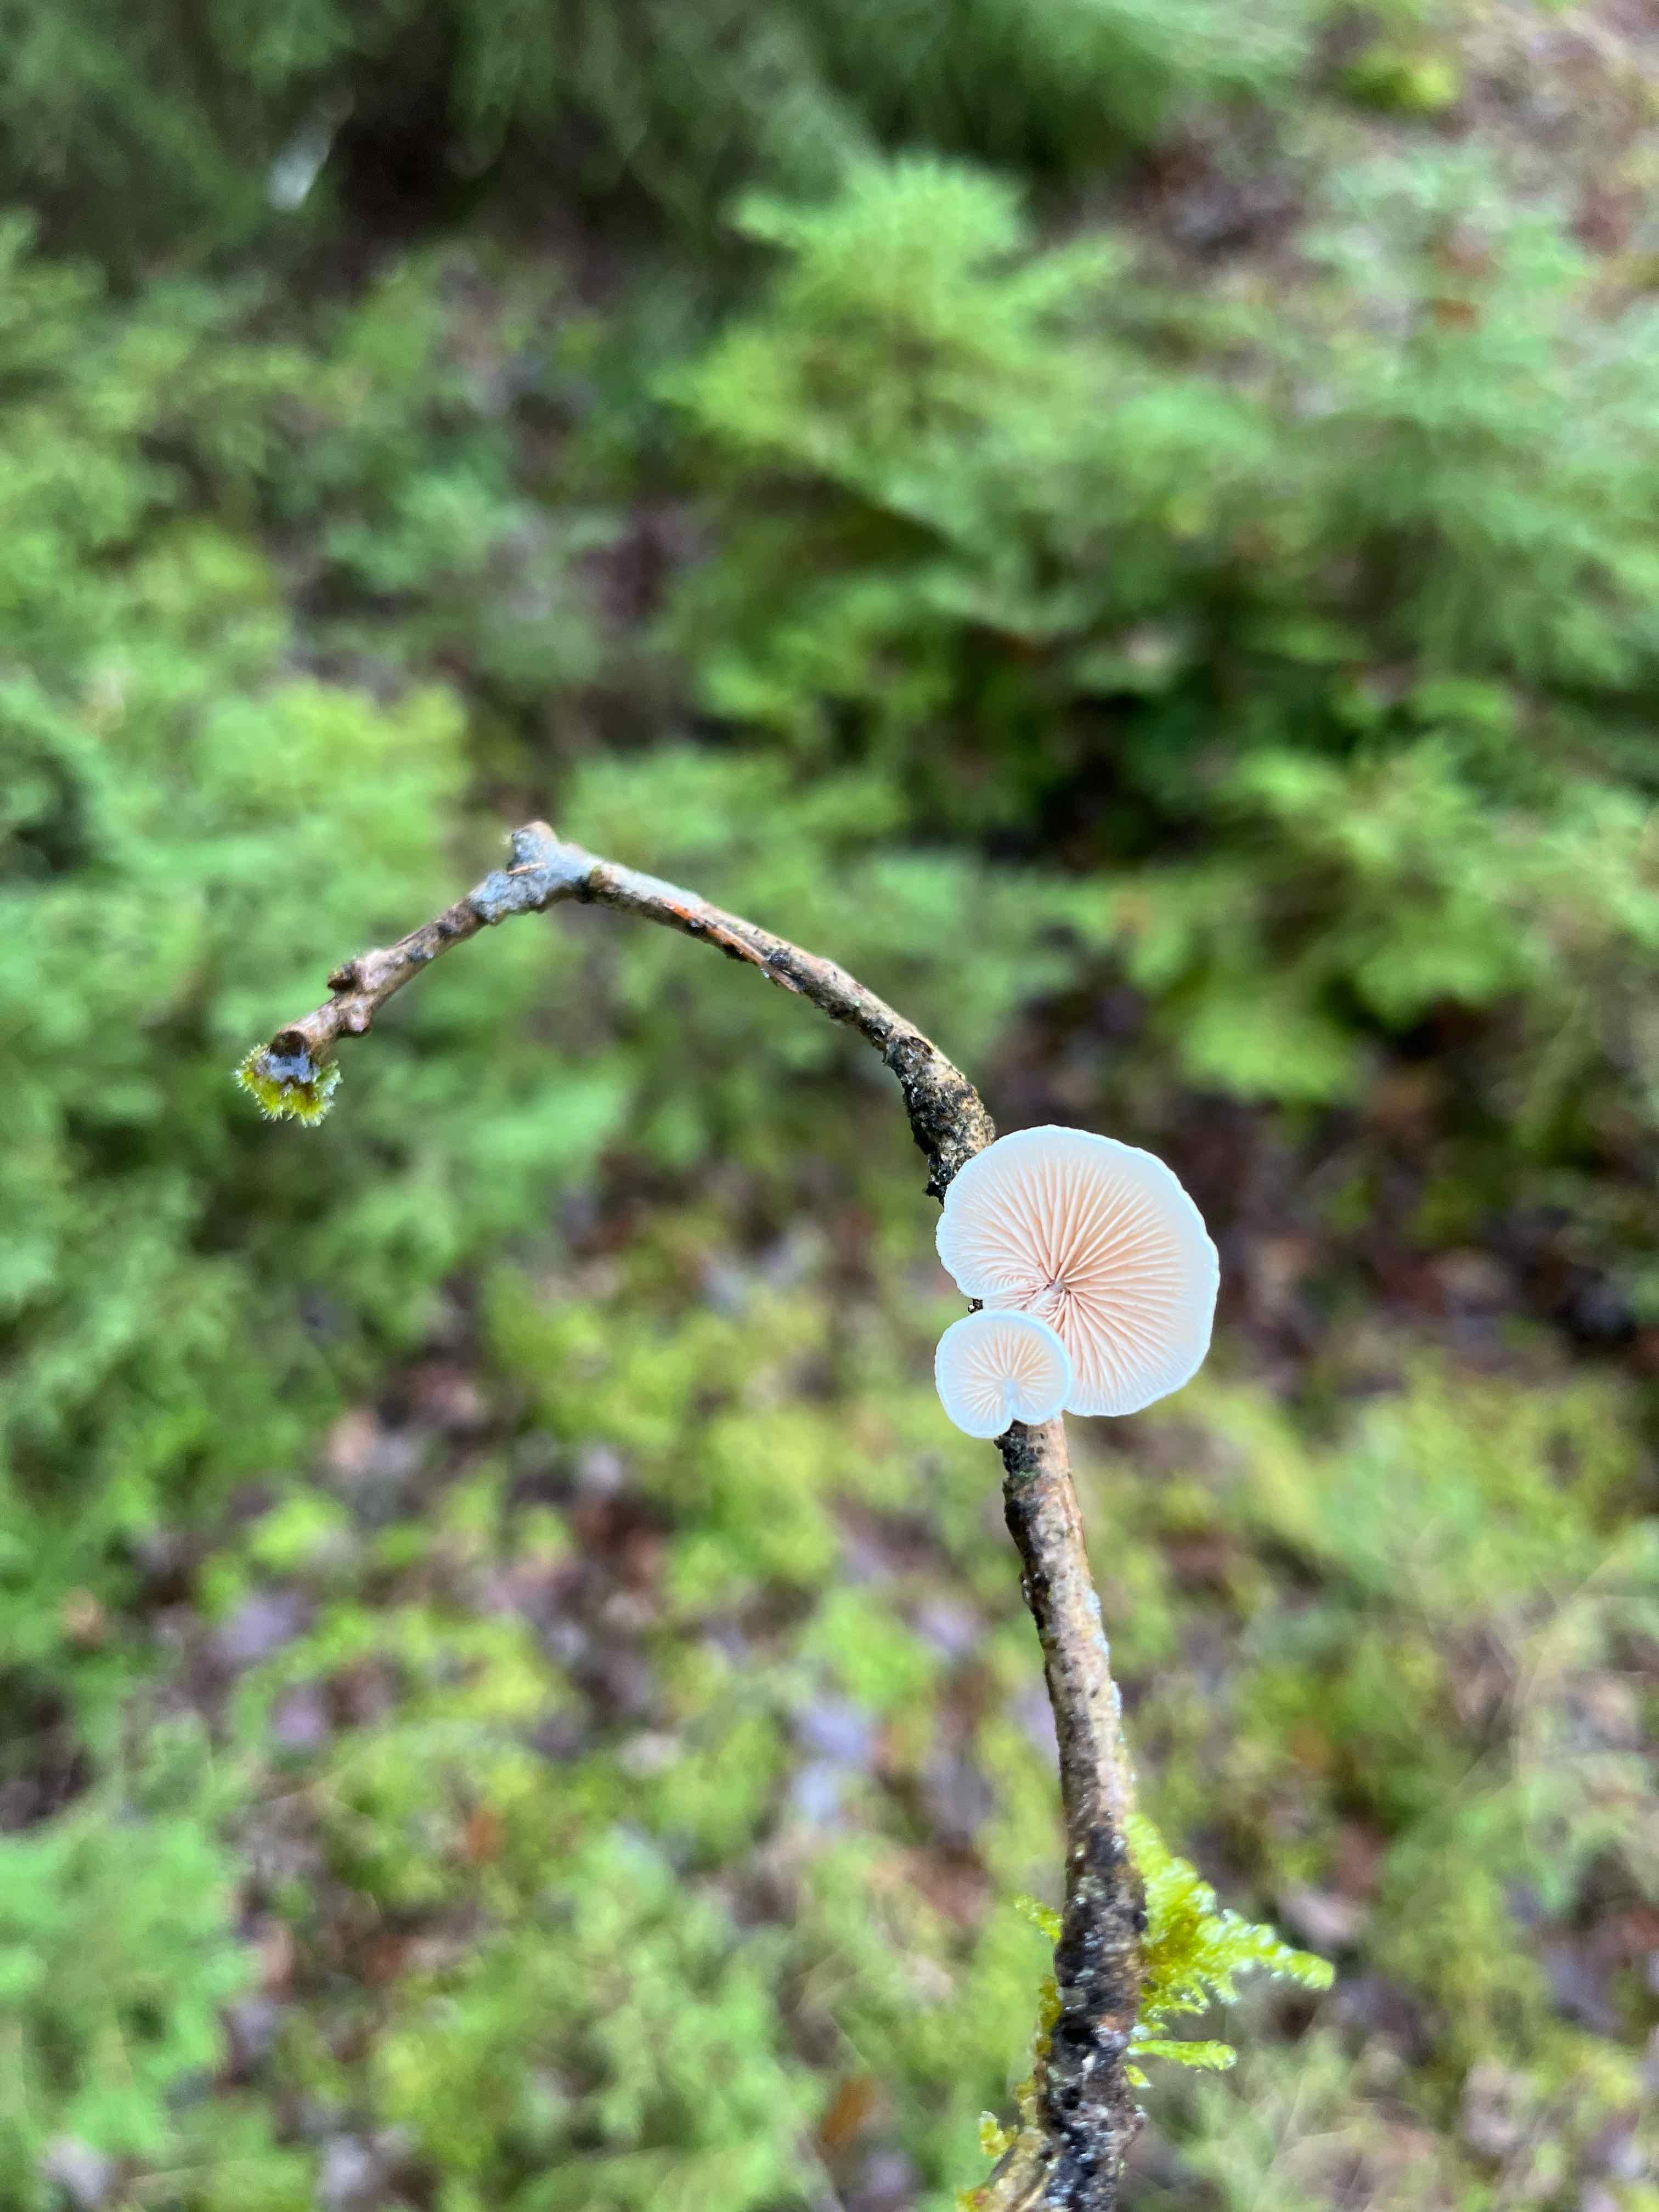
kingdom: Fungi
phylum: Basidiomycota
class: Agaricomycetes
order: Agaricales
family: Crepidotaceae
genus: Crepidotus
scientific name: Crepidotus
